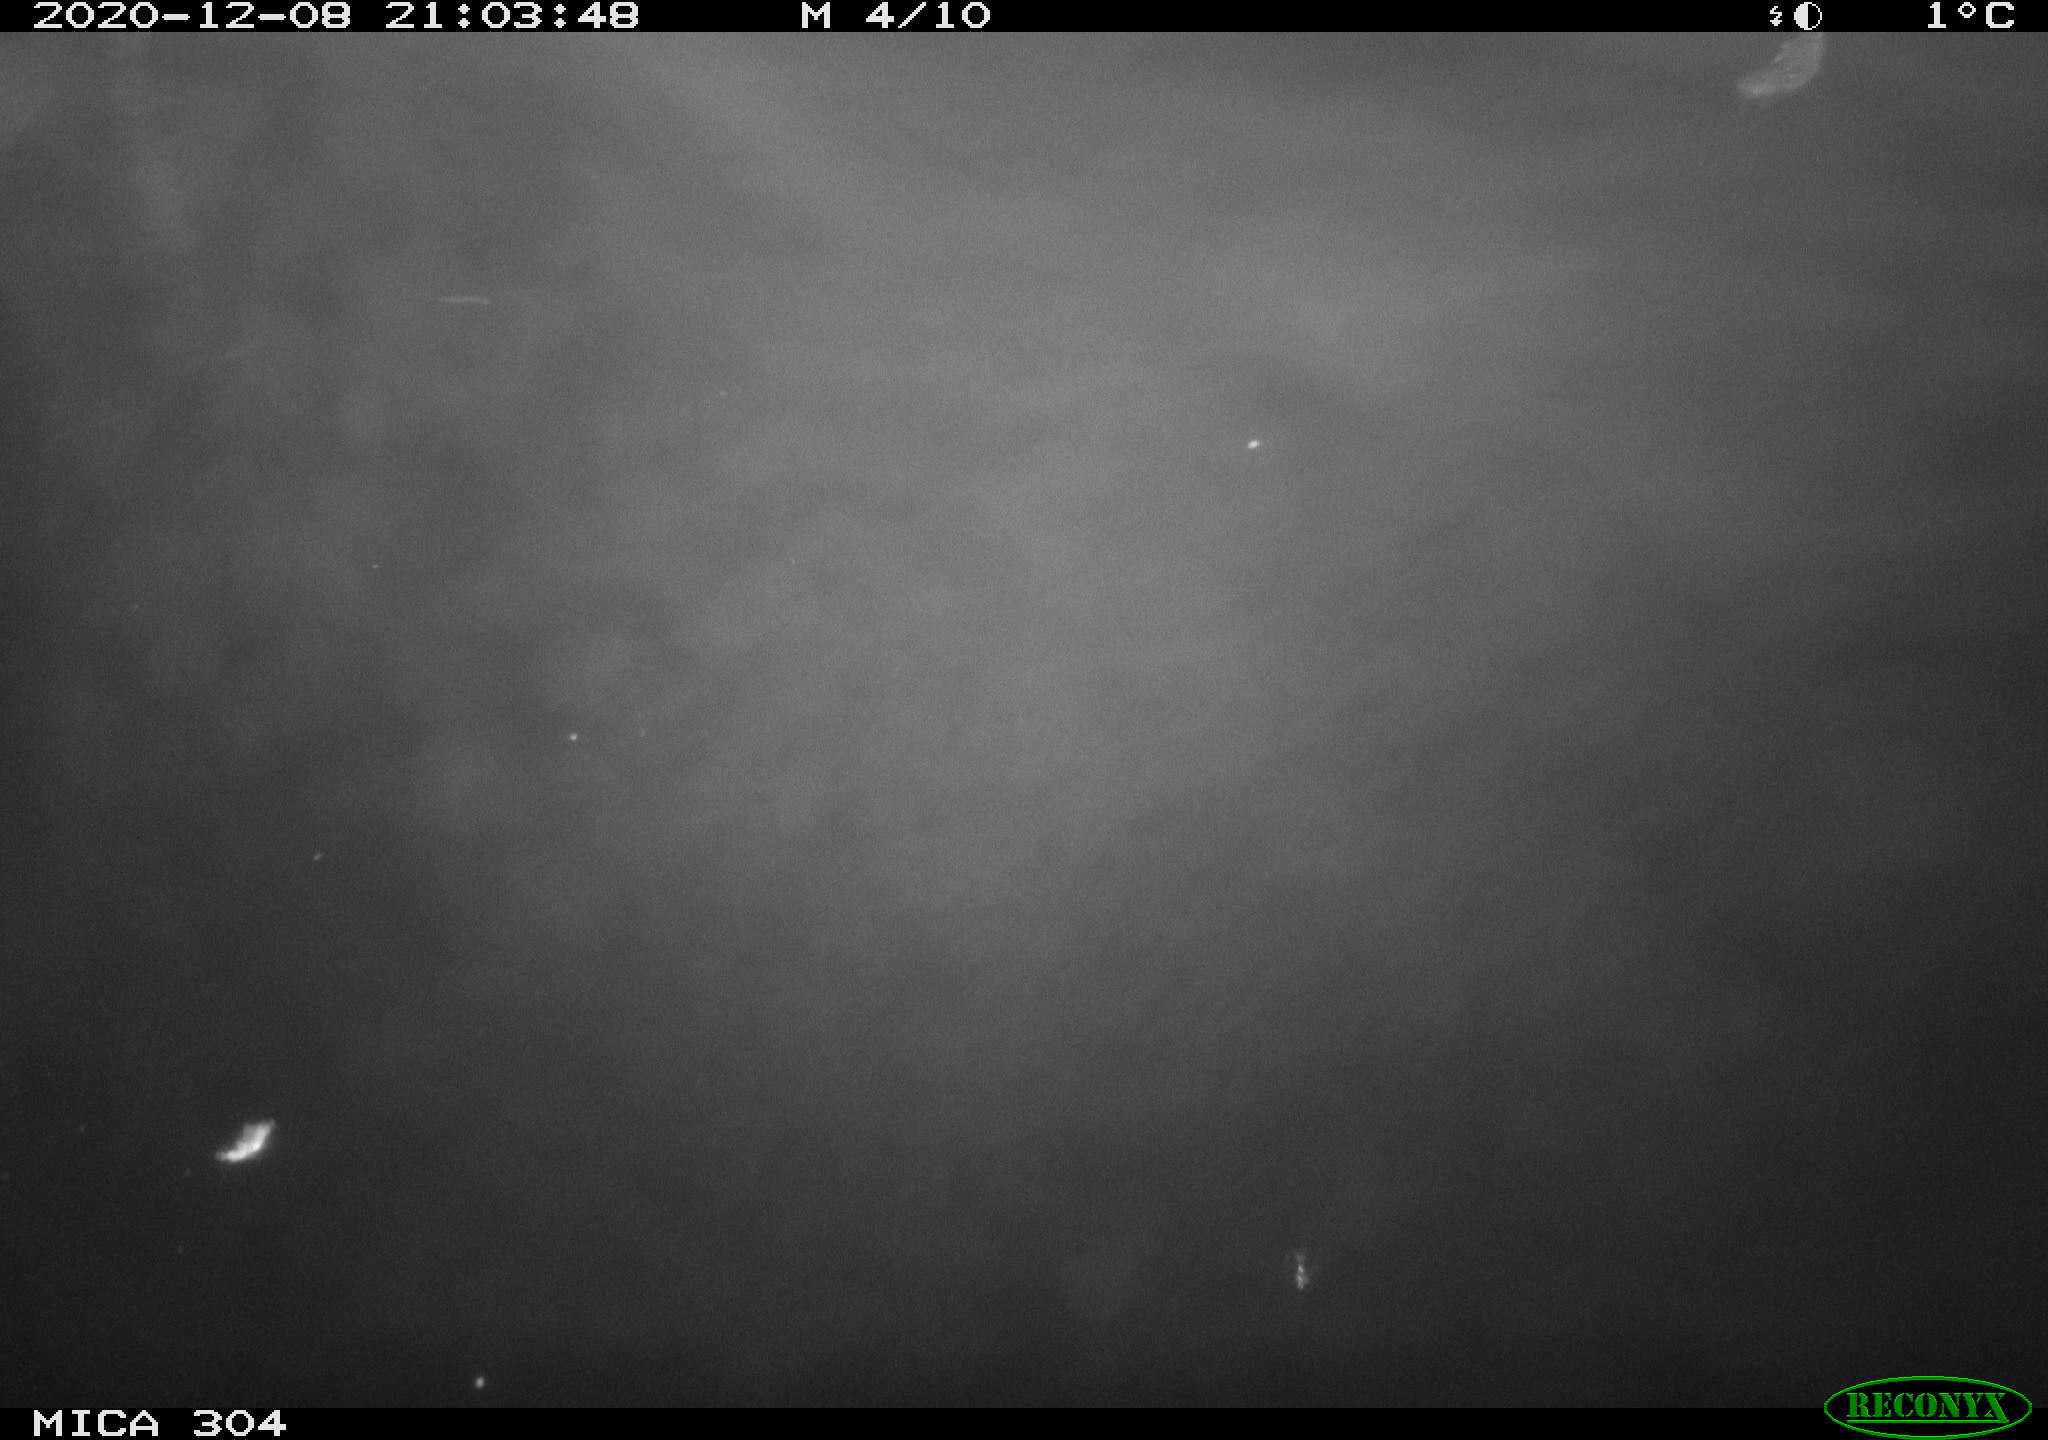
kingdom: Animalia
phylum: Chordata
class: Mammalia
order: Rodentia
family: Muridae
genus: Rattus
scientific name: Rattus norvegicus
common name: Brown rat
